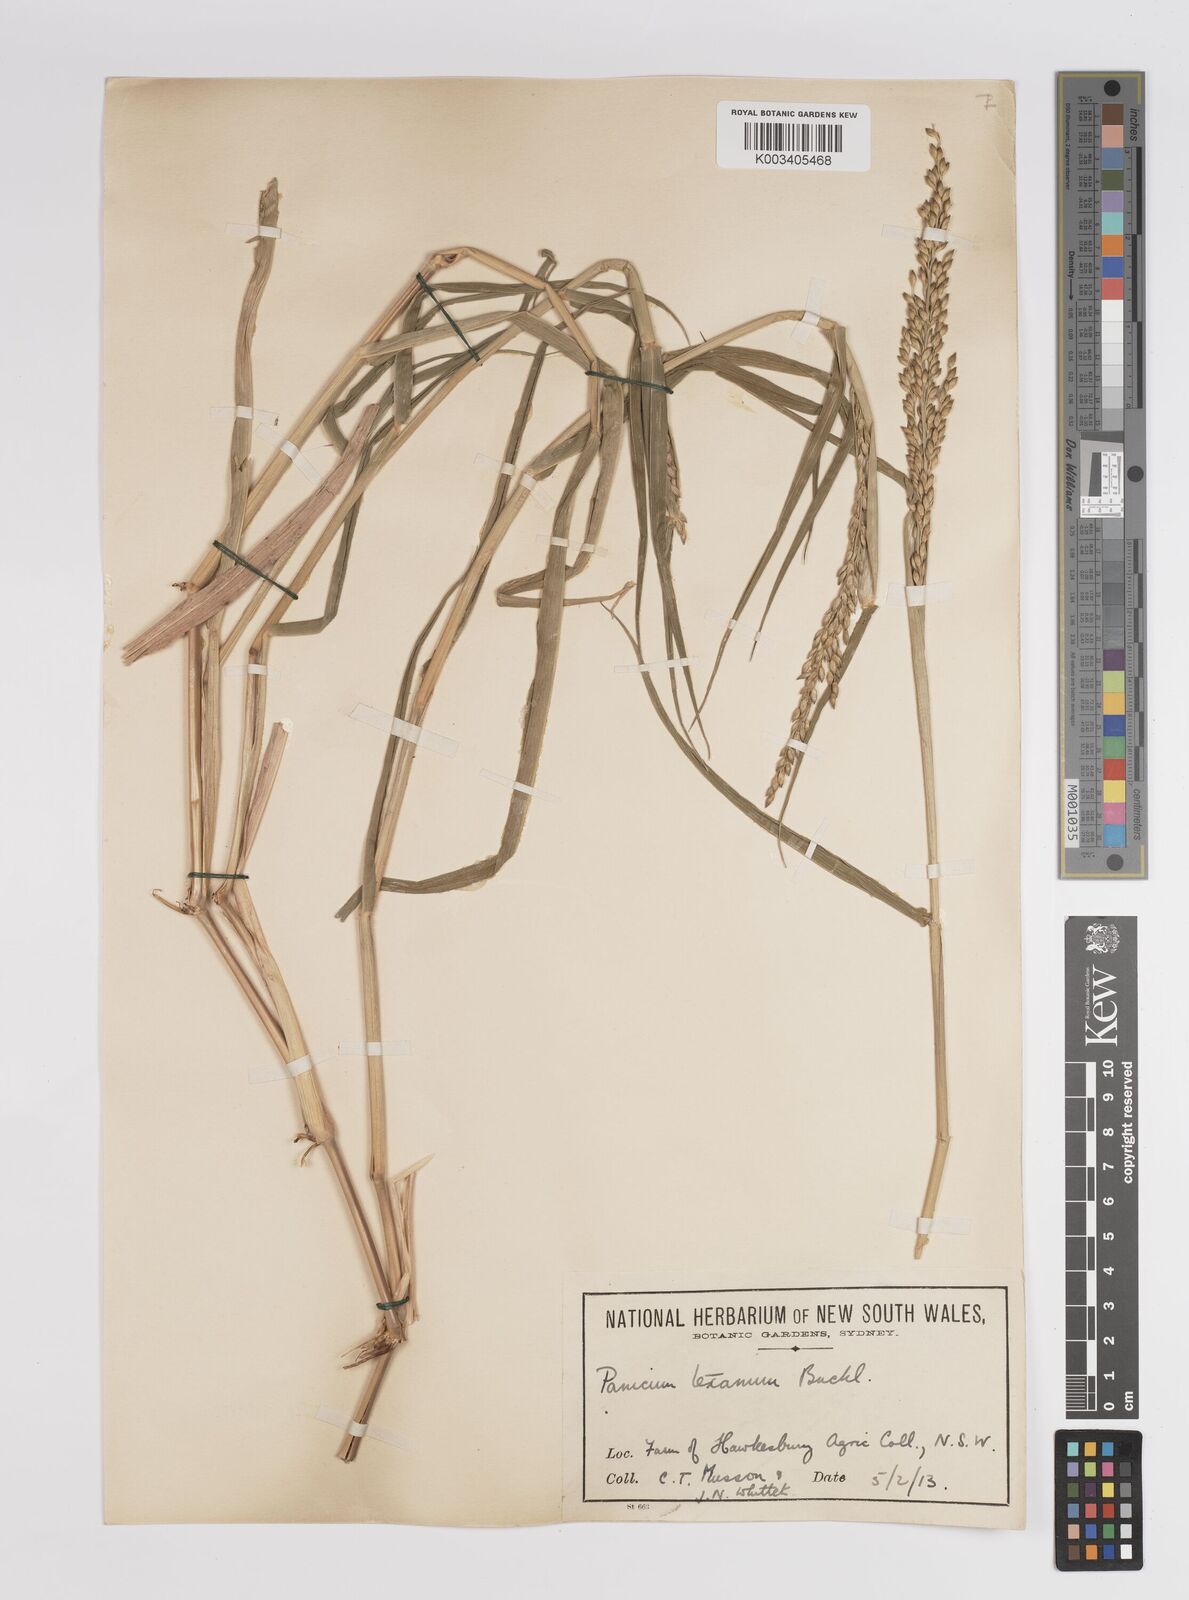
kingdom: Plantae
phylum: Tracheophyta
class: Liliopsida
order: Poales
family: Poaceae
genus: Urochloa
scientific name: Urochloa texana
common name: Texas millet
